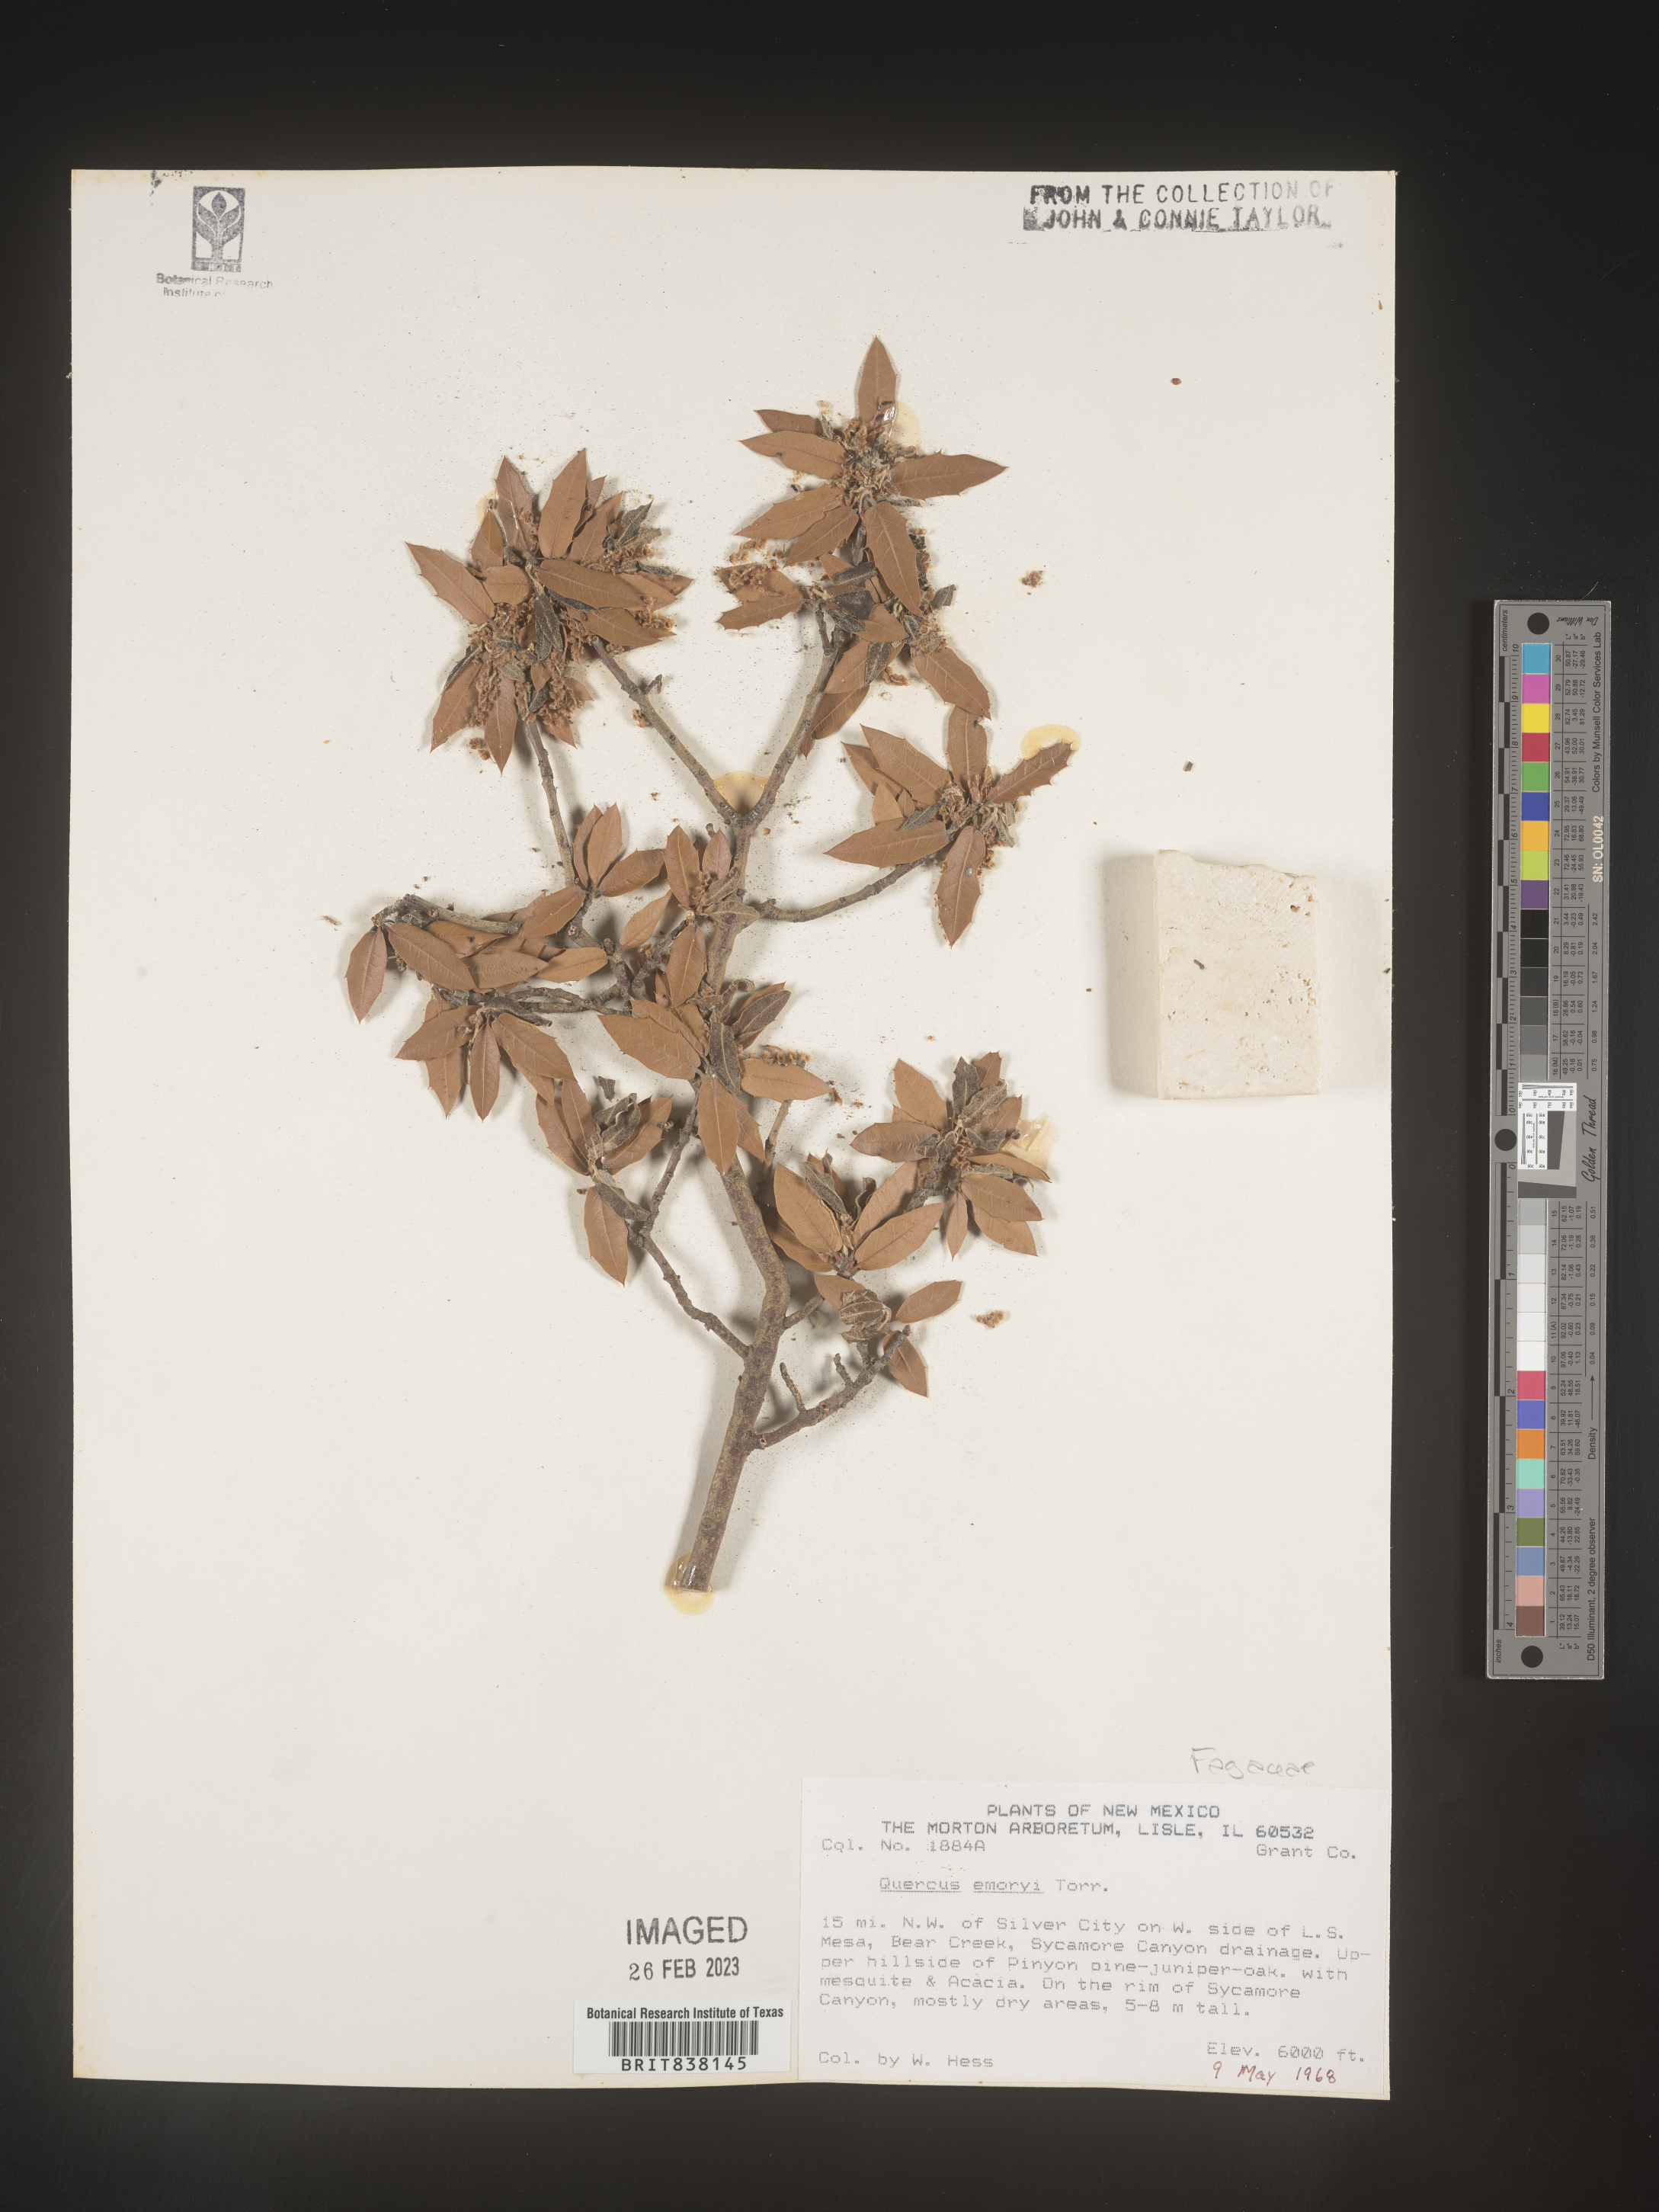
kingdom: Plantae
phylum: Tracheophyta
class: Magnoliopsida
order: Fagales
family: Fagaceae
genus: Quercus
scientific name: Quercus
